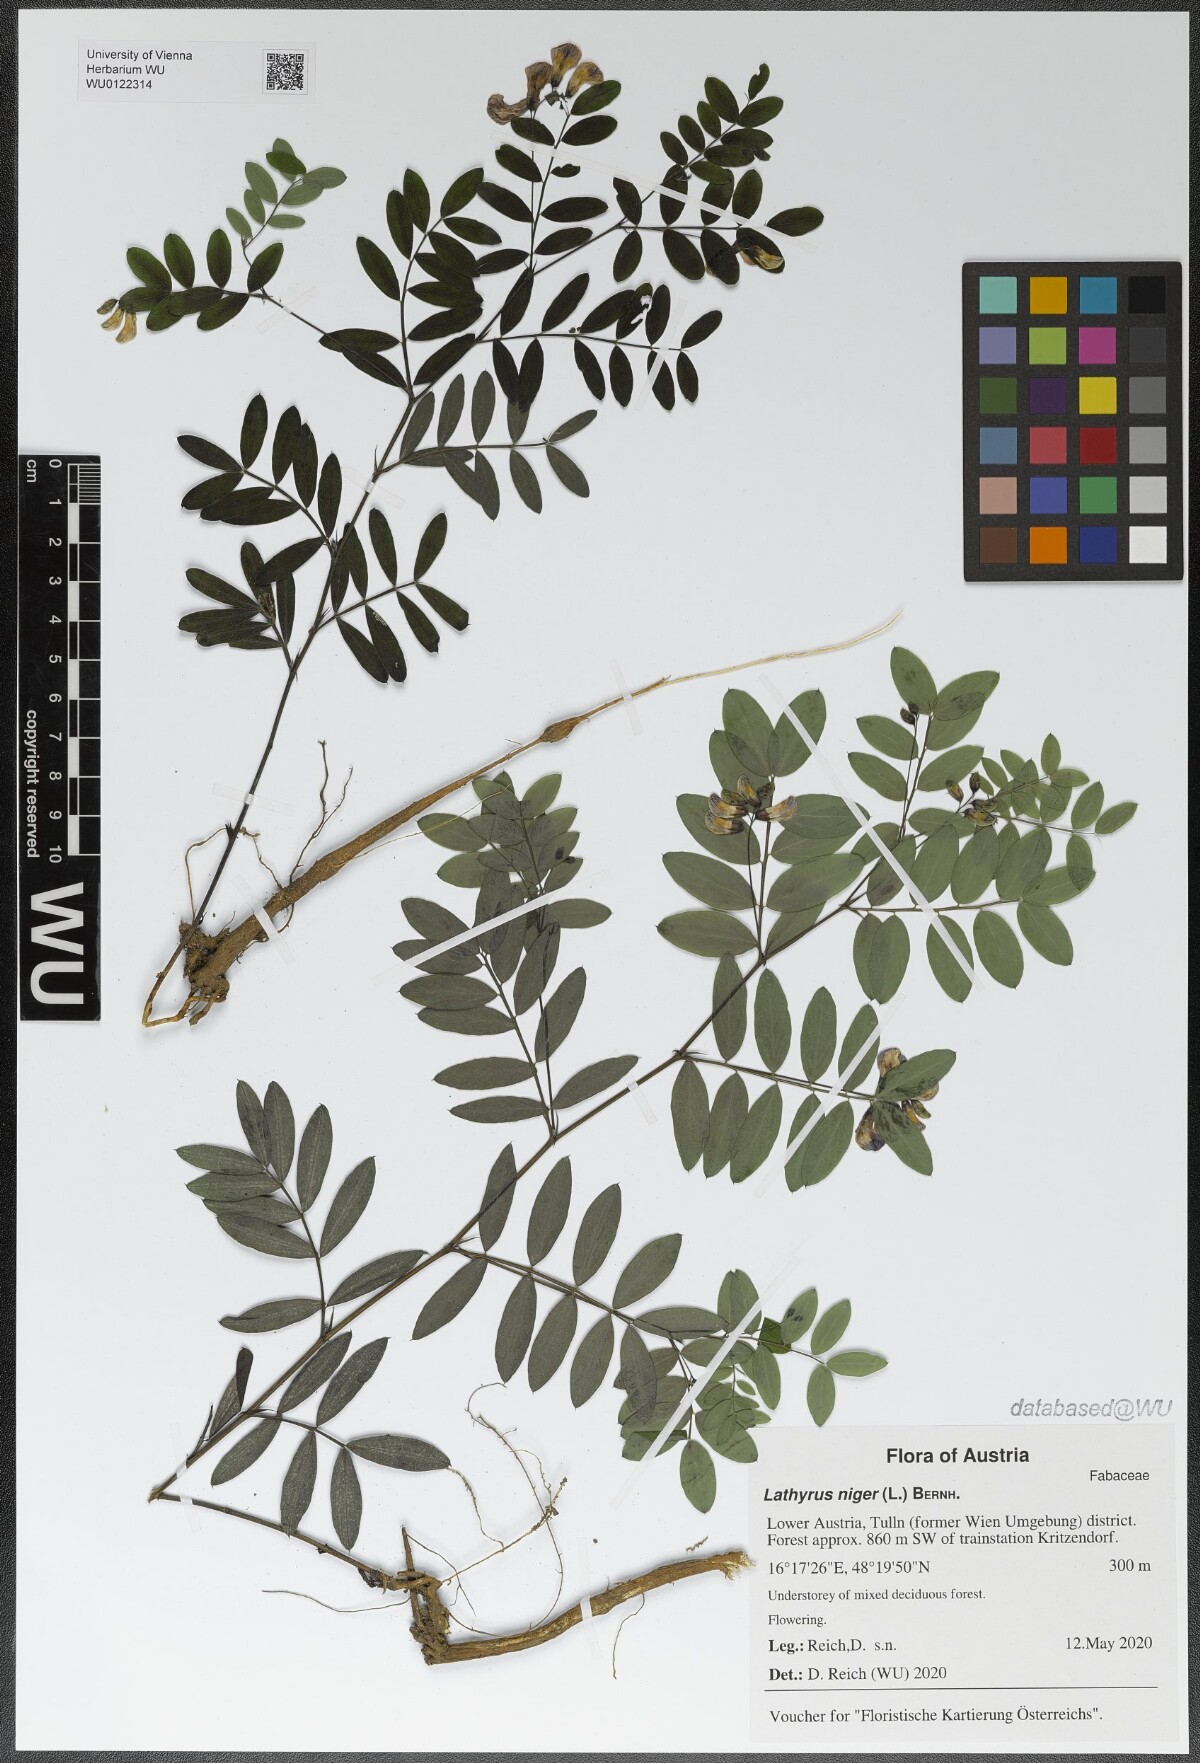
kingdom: Plantae
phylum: Tracheophyta
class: Magnoliopsida
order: Fabales
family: Fabaceae
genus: Lathyrus
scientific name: Lathyrus niger
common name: Black pea
